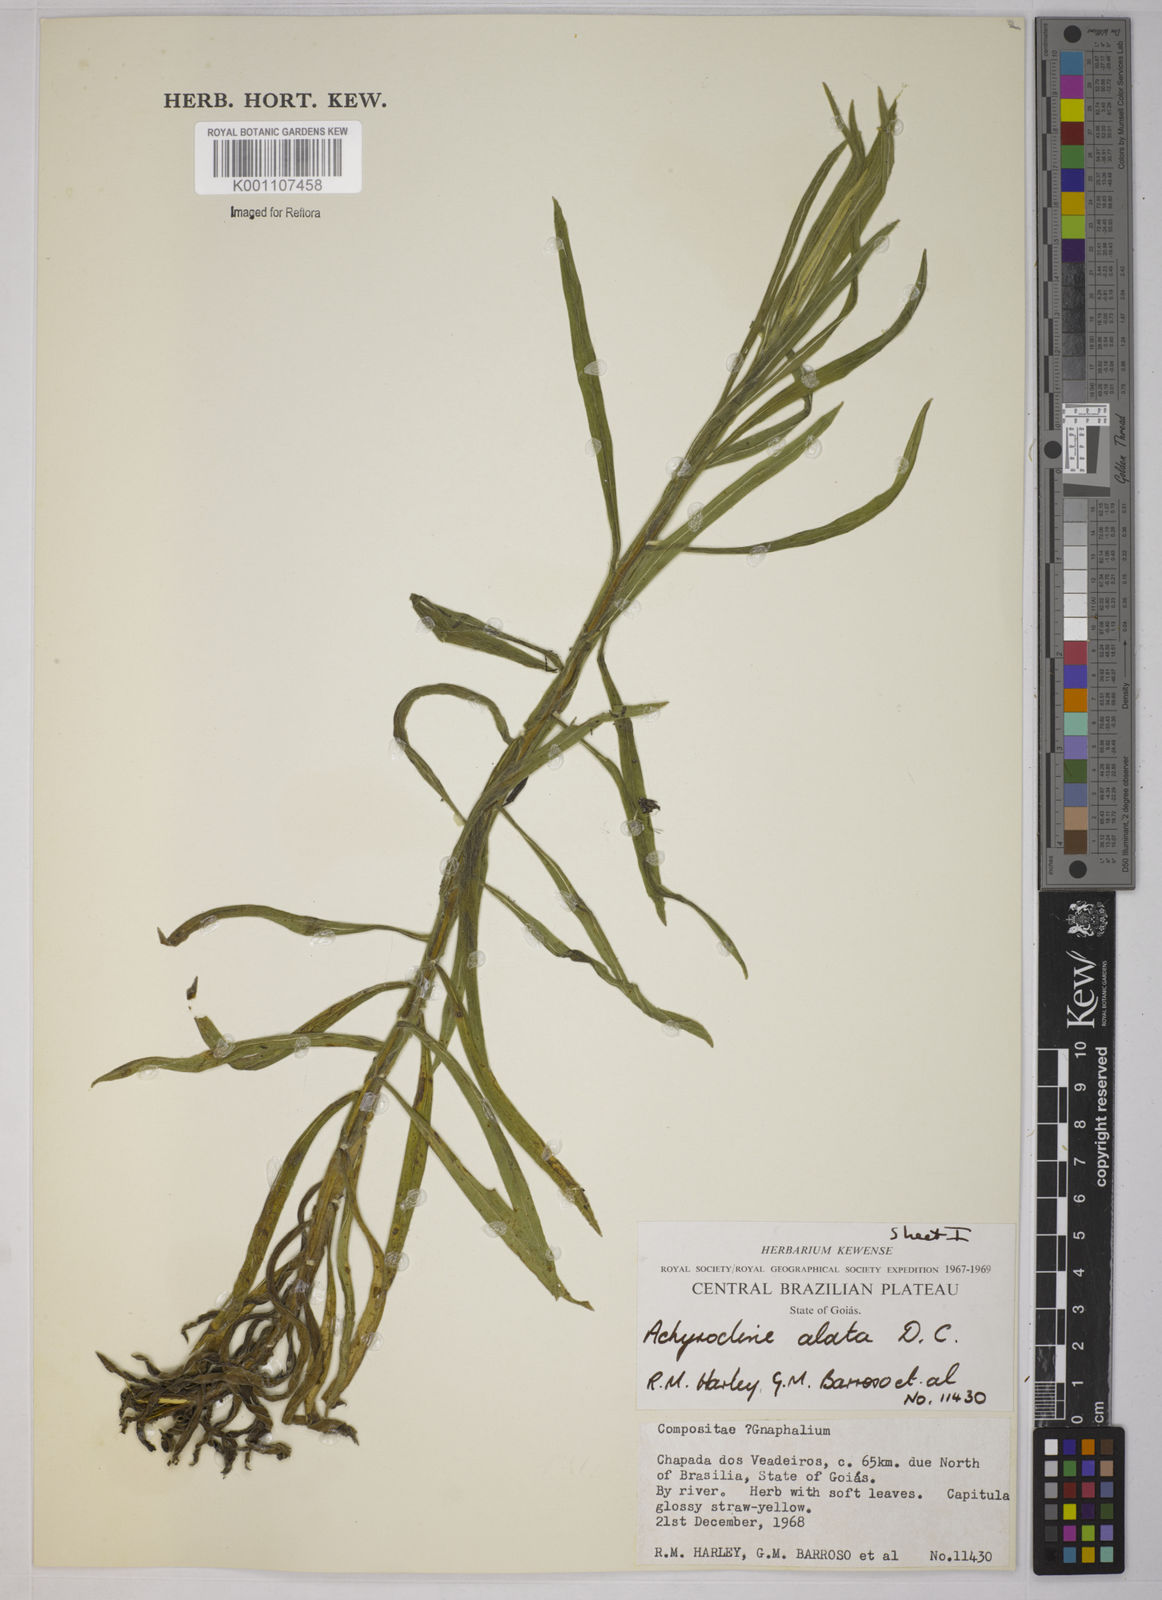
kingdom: Plantae
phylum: Tracheophyta
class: Magnoliopsida
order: Asterales
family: Asteraceae
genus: Achyrocline
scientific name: Achyrocline alata
